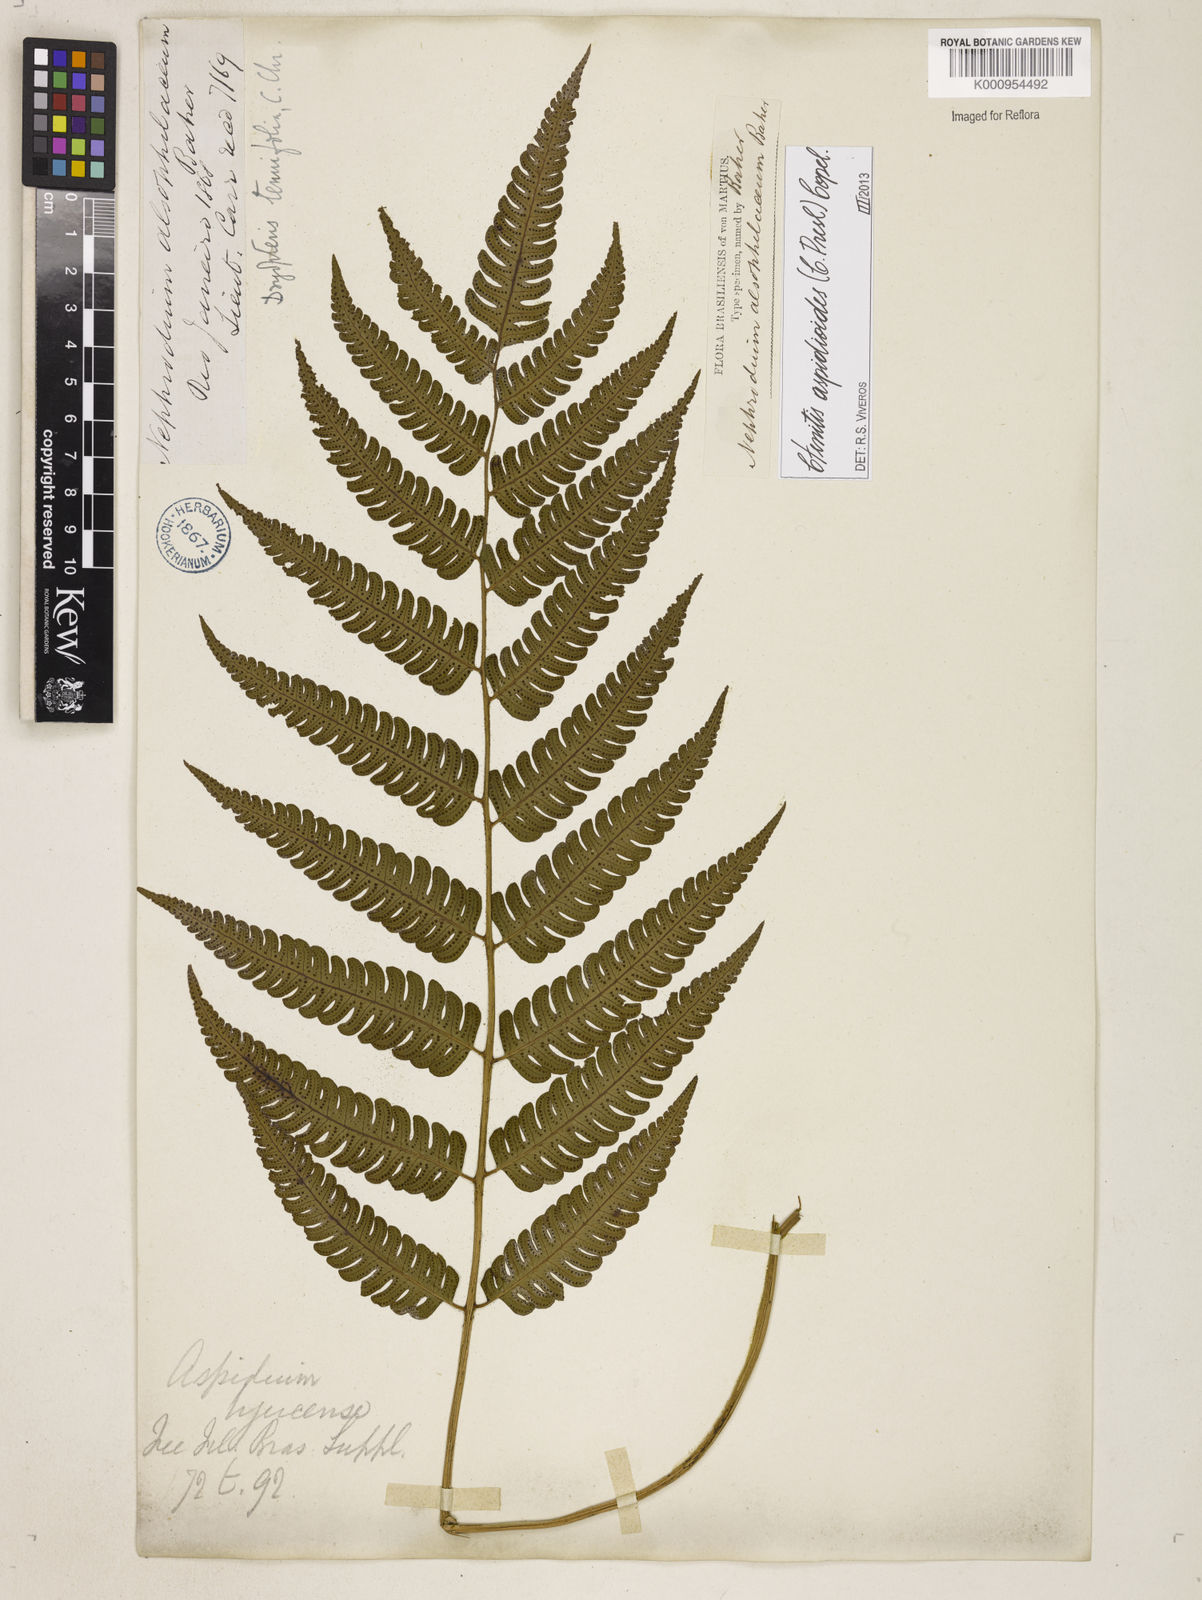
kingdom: Plantae
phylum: Tracheophyta
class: Polypodiopsida
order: Polypodiales
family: Dryopteridaceae
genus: Ctenitis
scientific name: Ctenitis aspidioides
